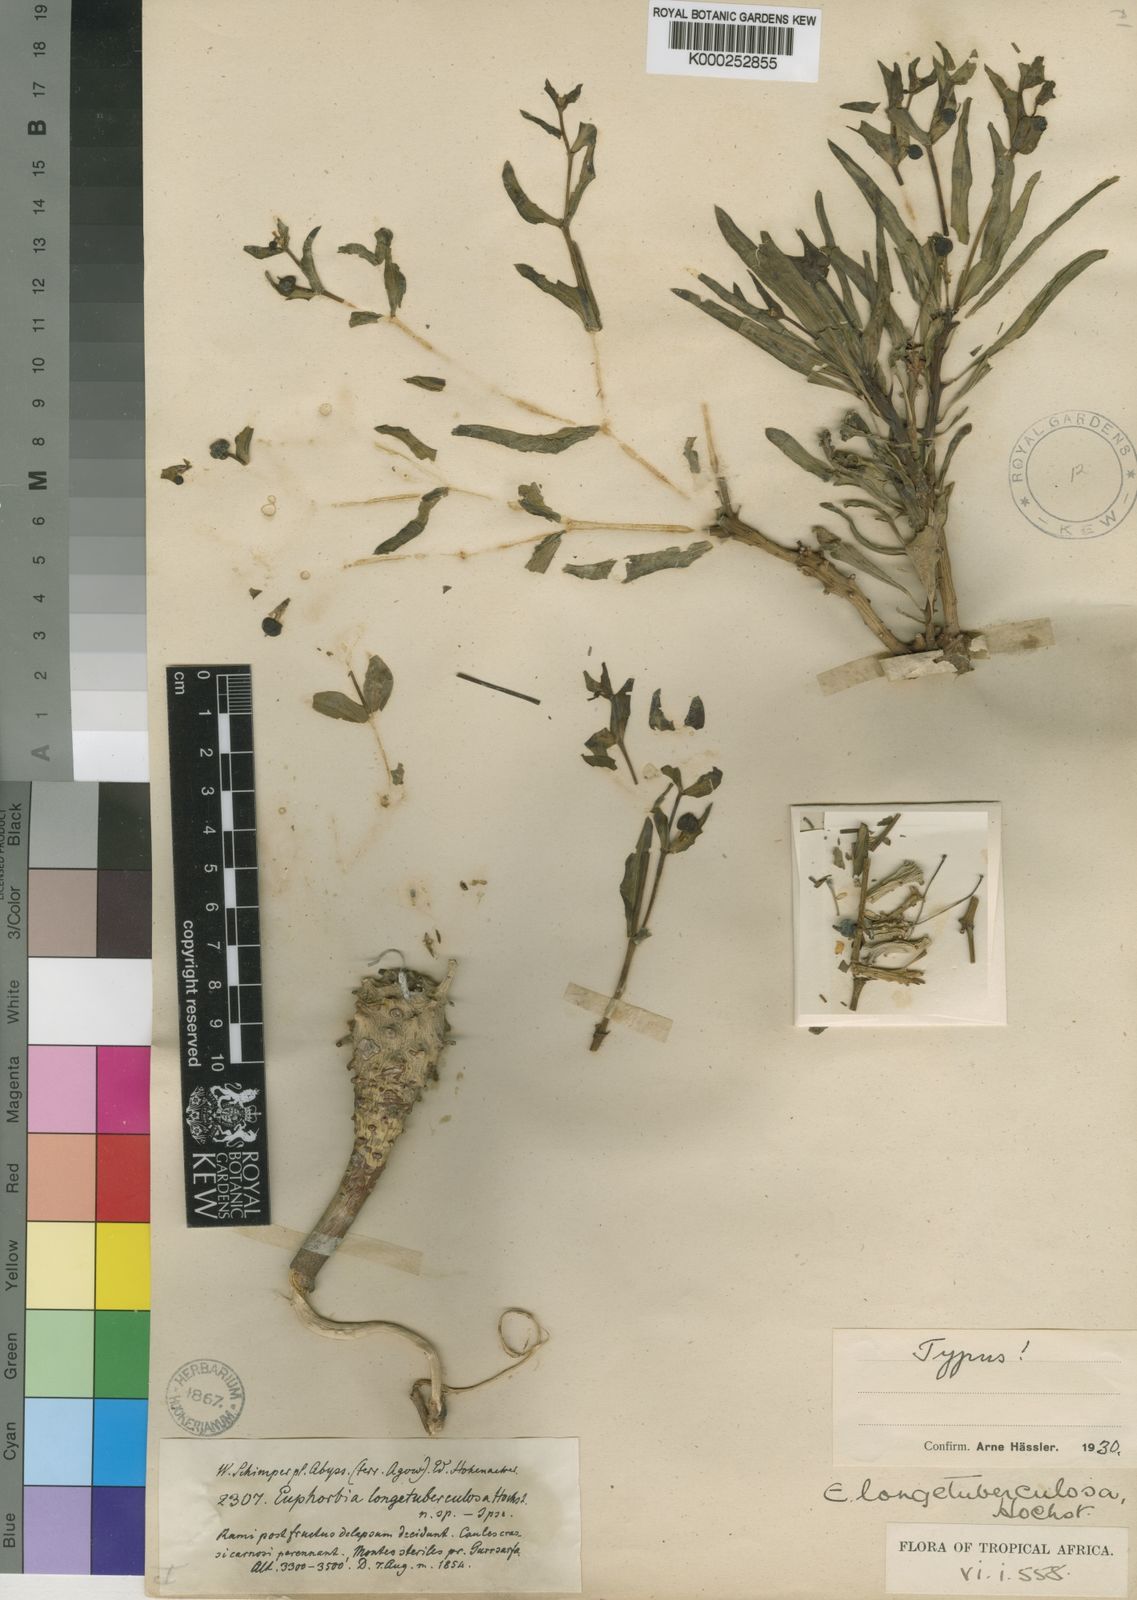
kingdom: Plantae
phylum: Tracheophyta
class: Magnoliopsida
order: Malpighiales
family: Euphorbiaceae
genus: Euphorbia
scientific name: Euphorbia longetuberculosa
